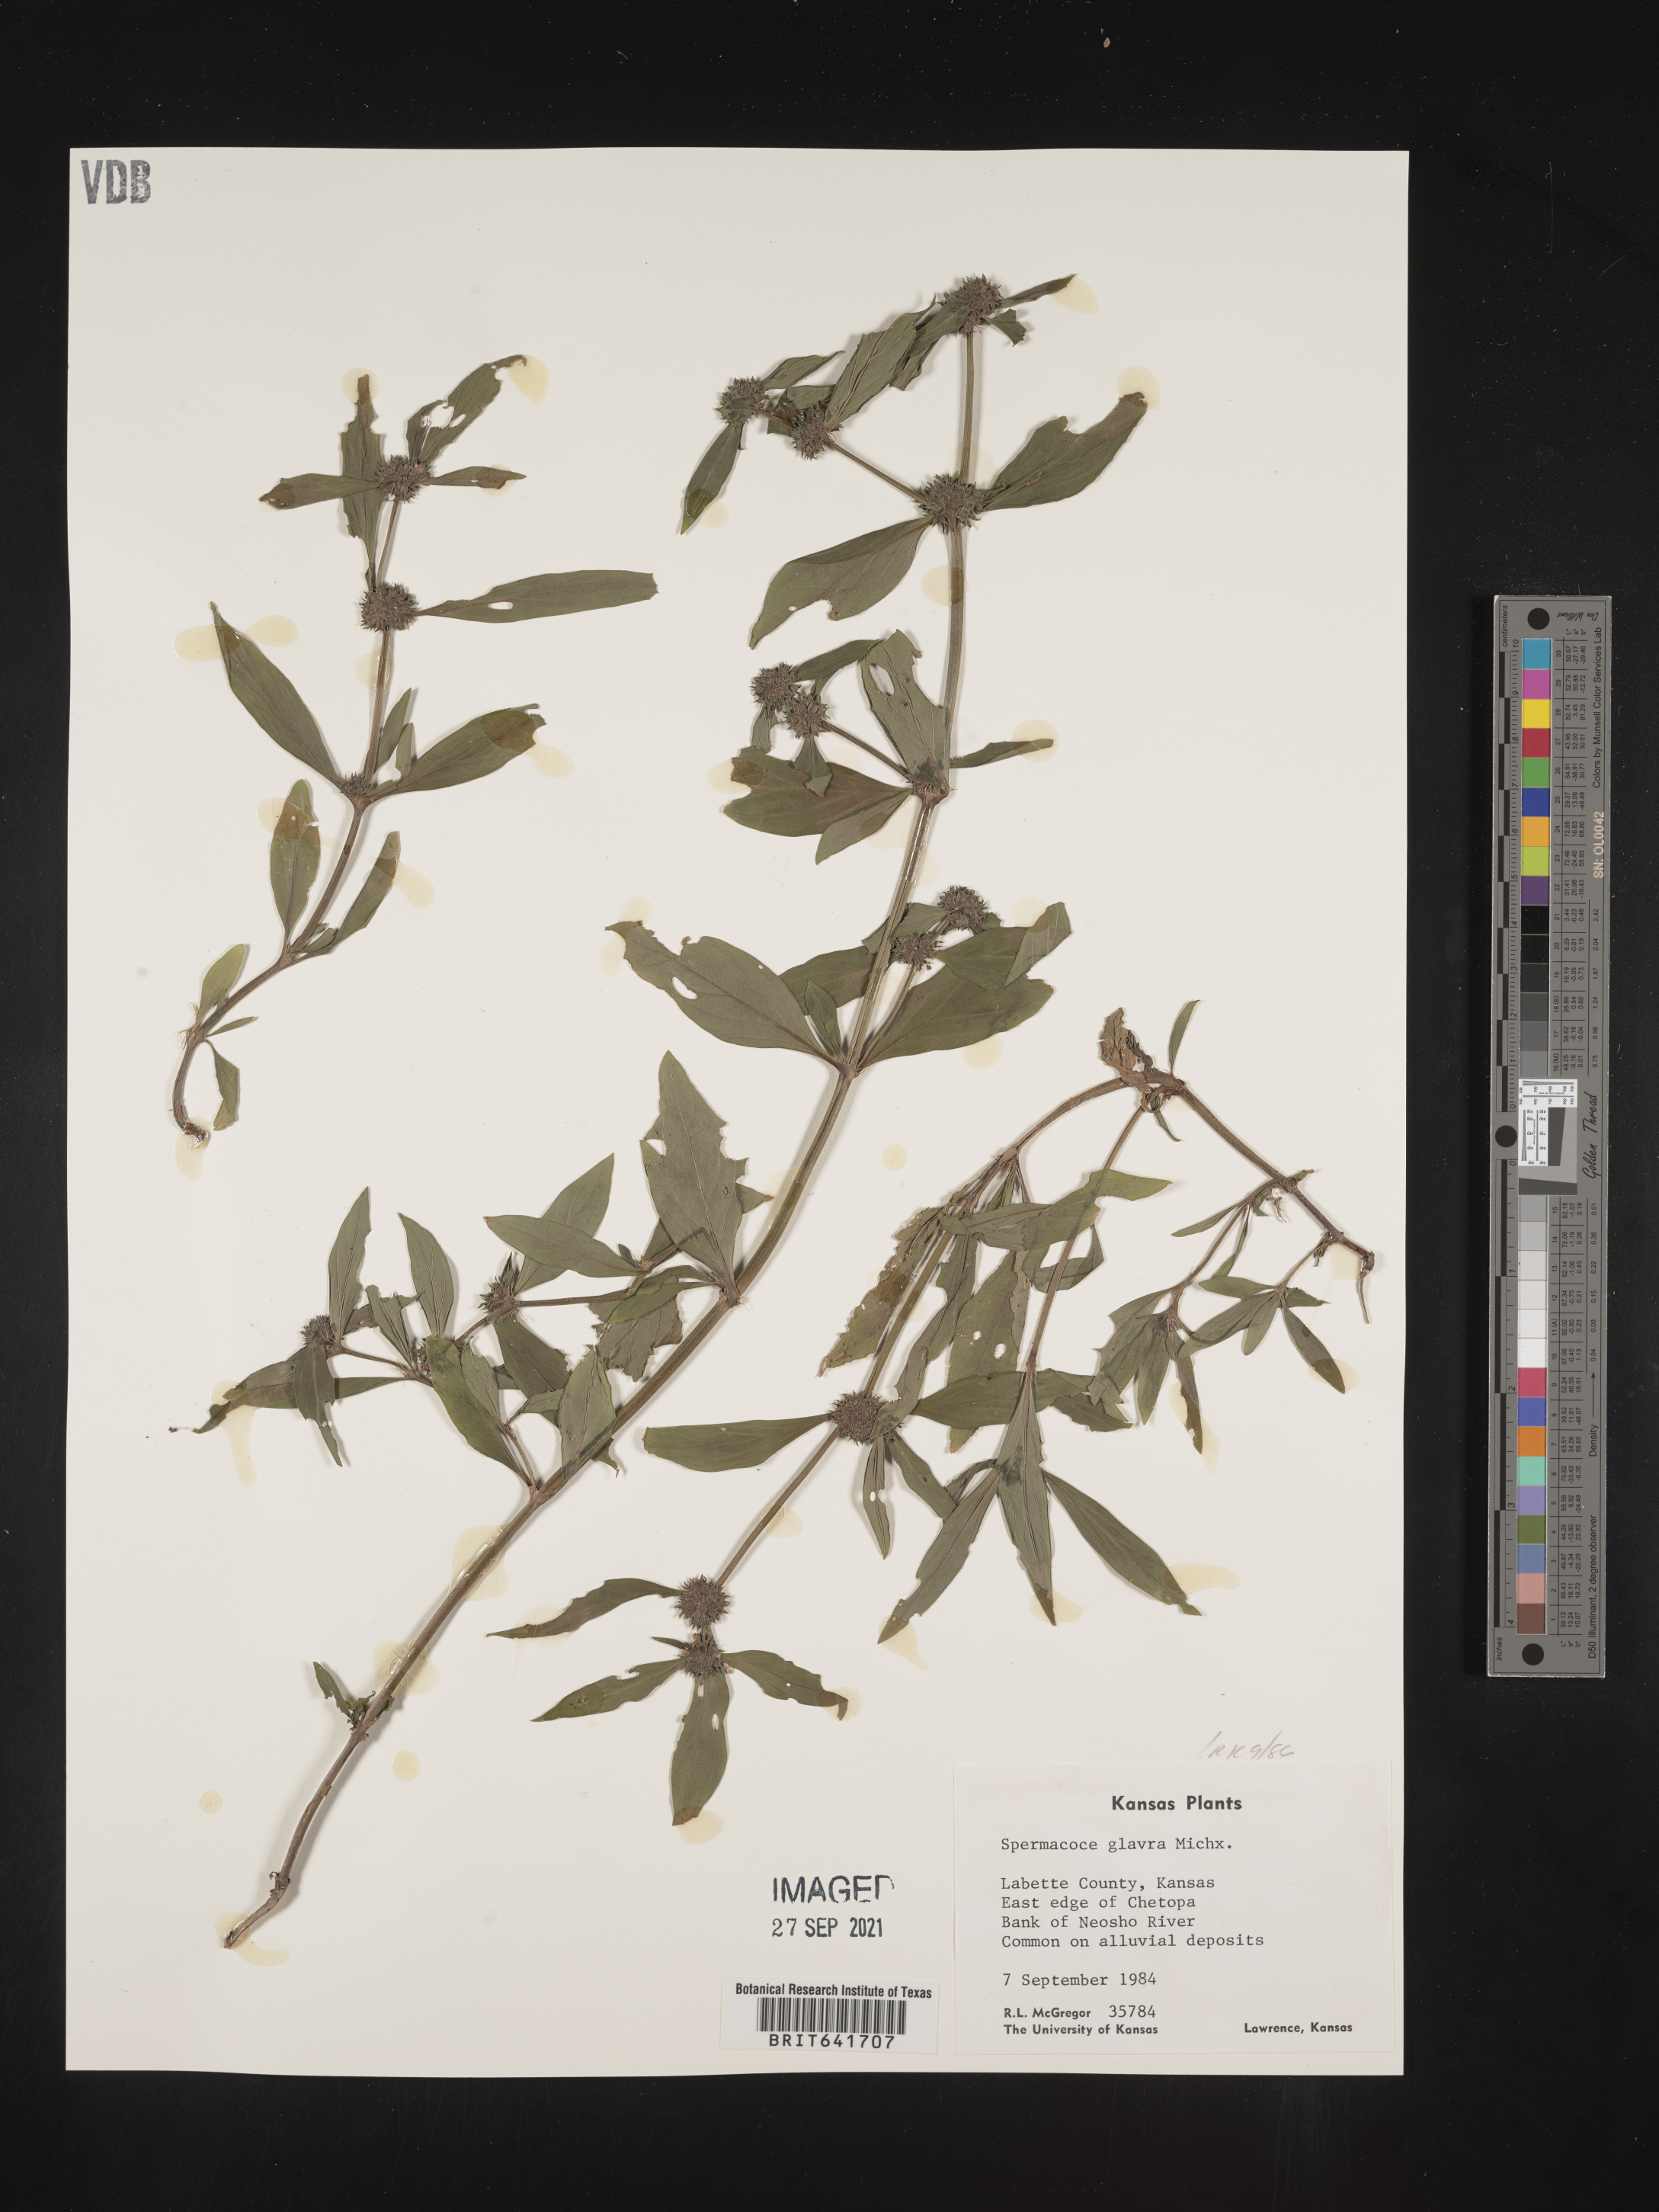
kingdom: Plantae
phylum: Tracheophyta
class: Magnoliopsida
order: Gentianales
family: Rubiaceae
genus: Spermacoce
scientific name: Spermacoce glabra
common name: Smooth buttonweed
